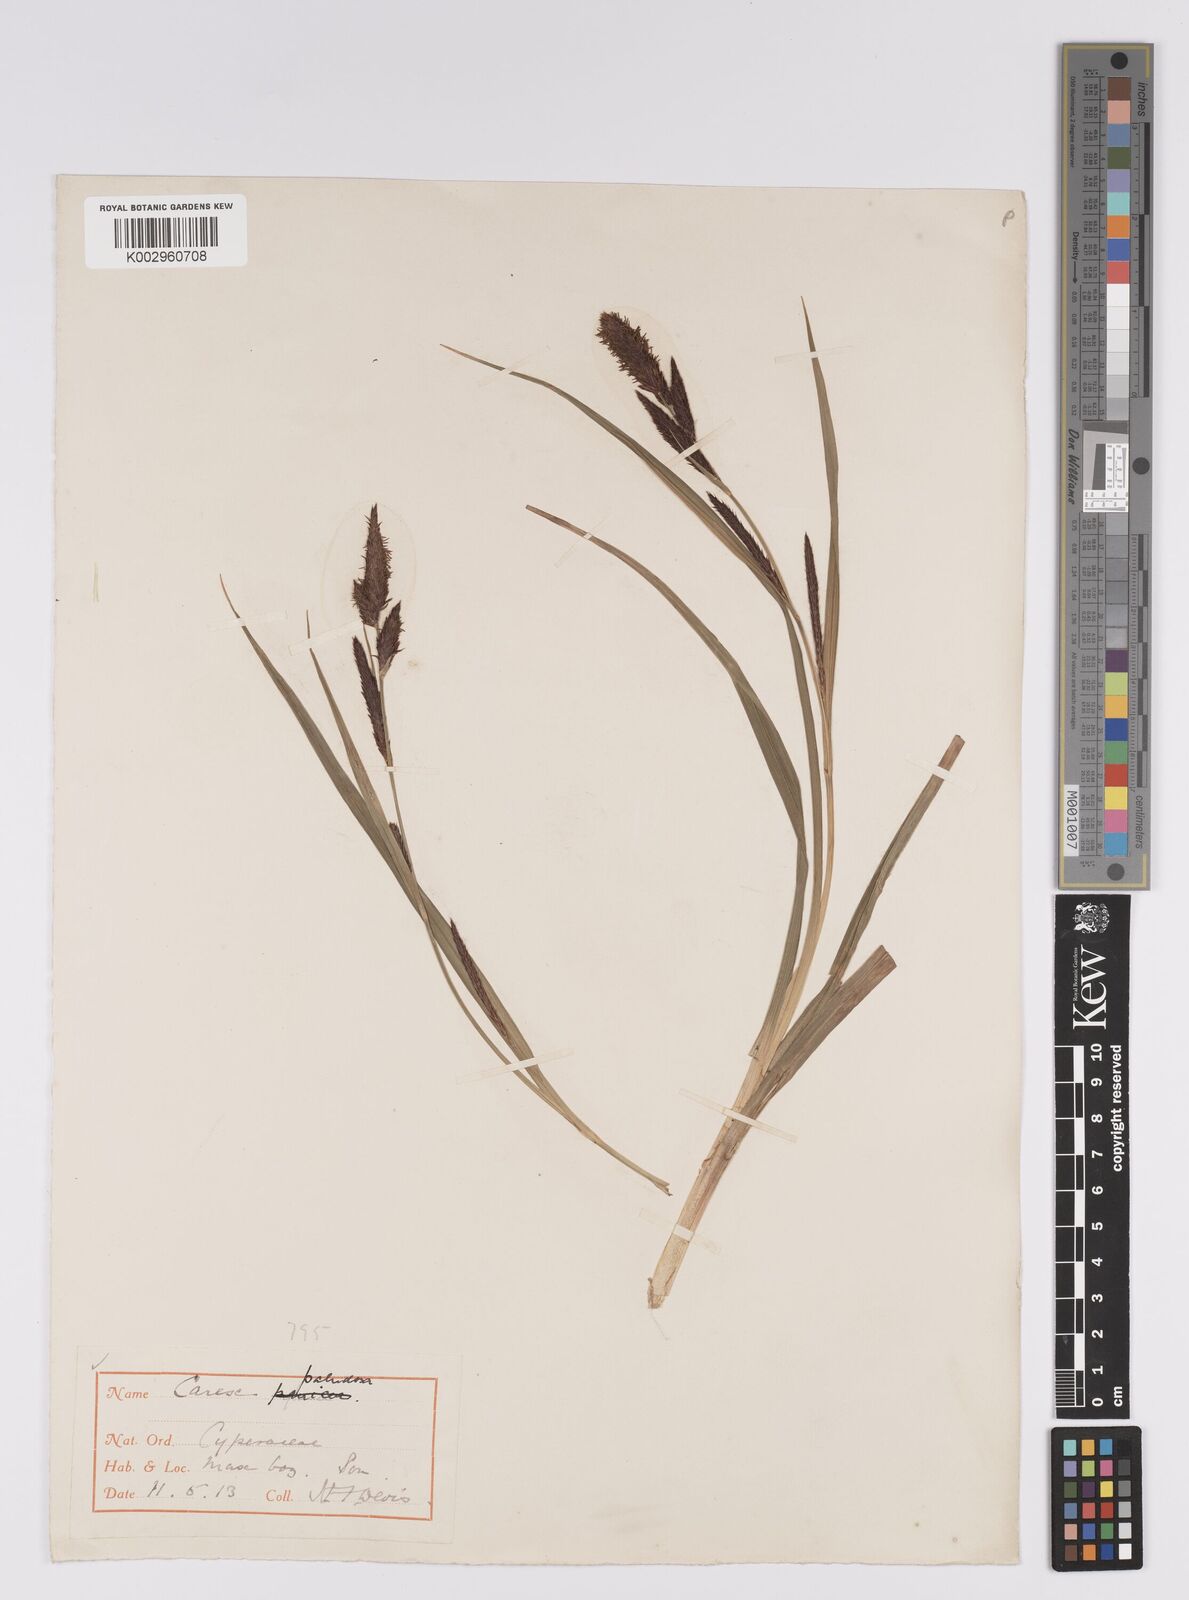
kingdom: Plantae
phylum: Tracheophyta
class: Liliopsida
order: Poales
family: Cyperaceae
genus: Carex
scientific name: Carex acutiformis
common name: Lesser pond-sedge
